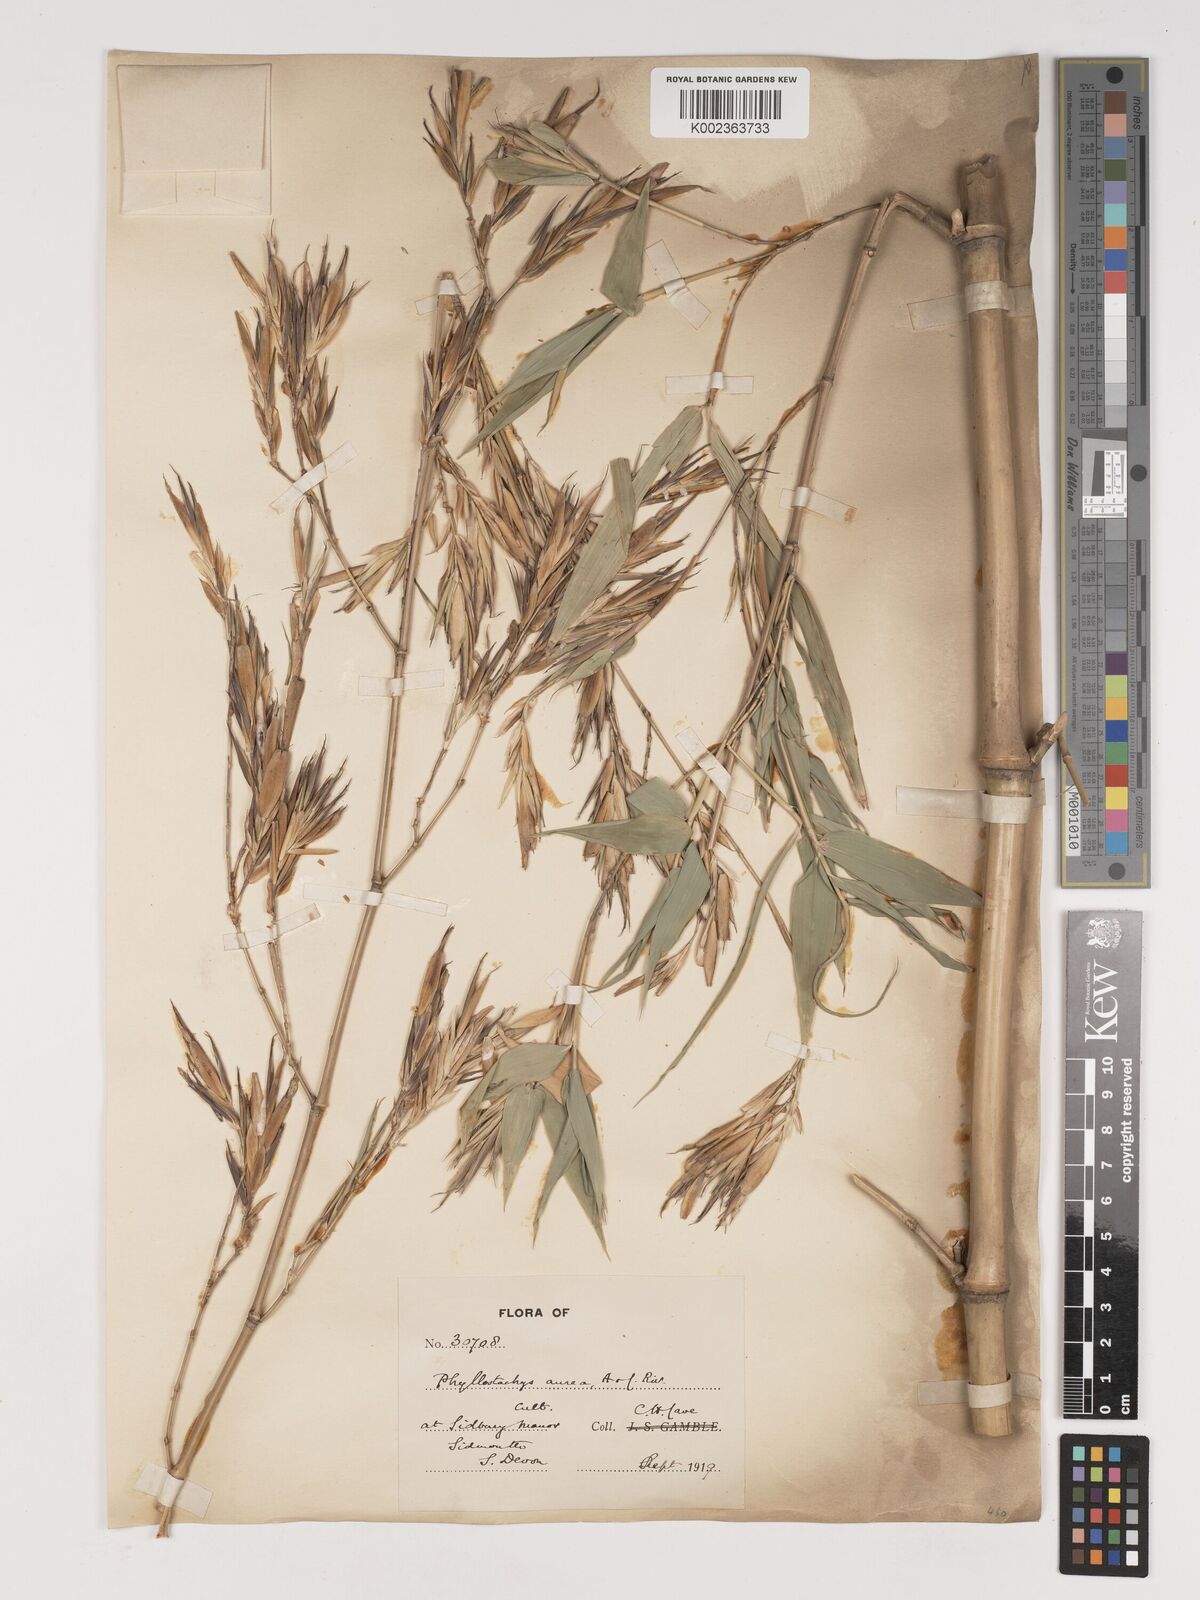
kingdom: Plantae
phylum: Tracheophyta
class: Liliopsida
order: Poales
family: Poaceae
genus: Phyllostachys
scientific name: Phyllostachys aurea
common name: Golden bamboo
